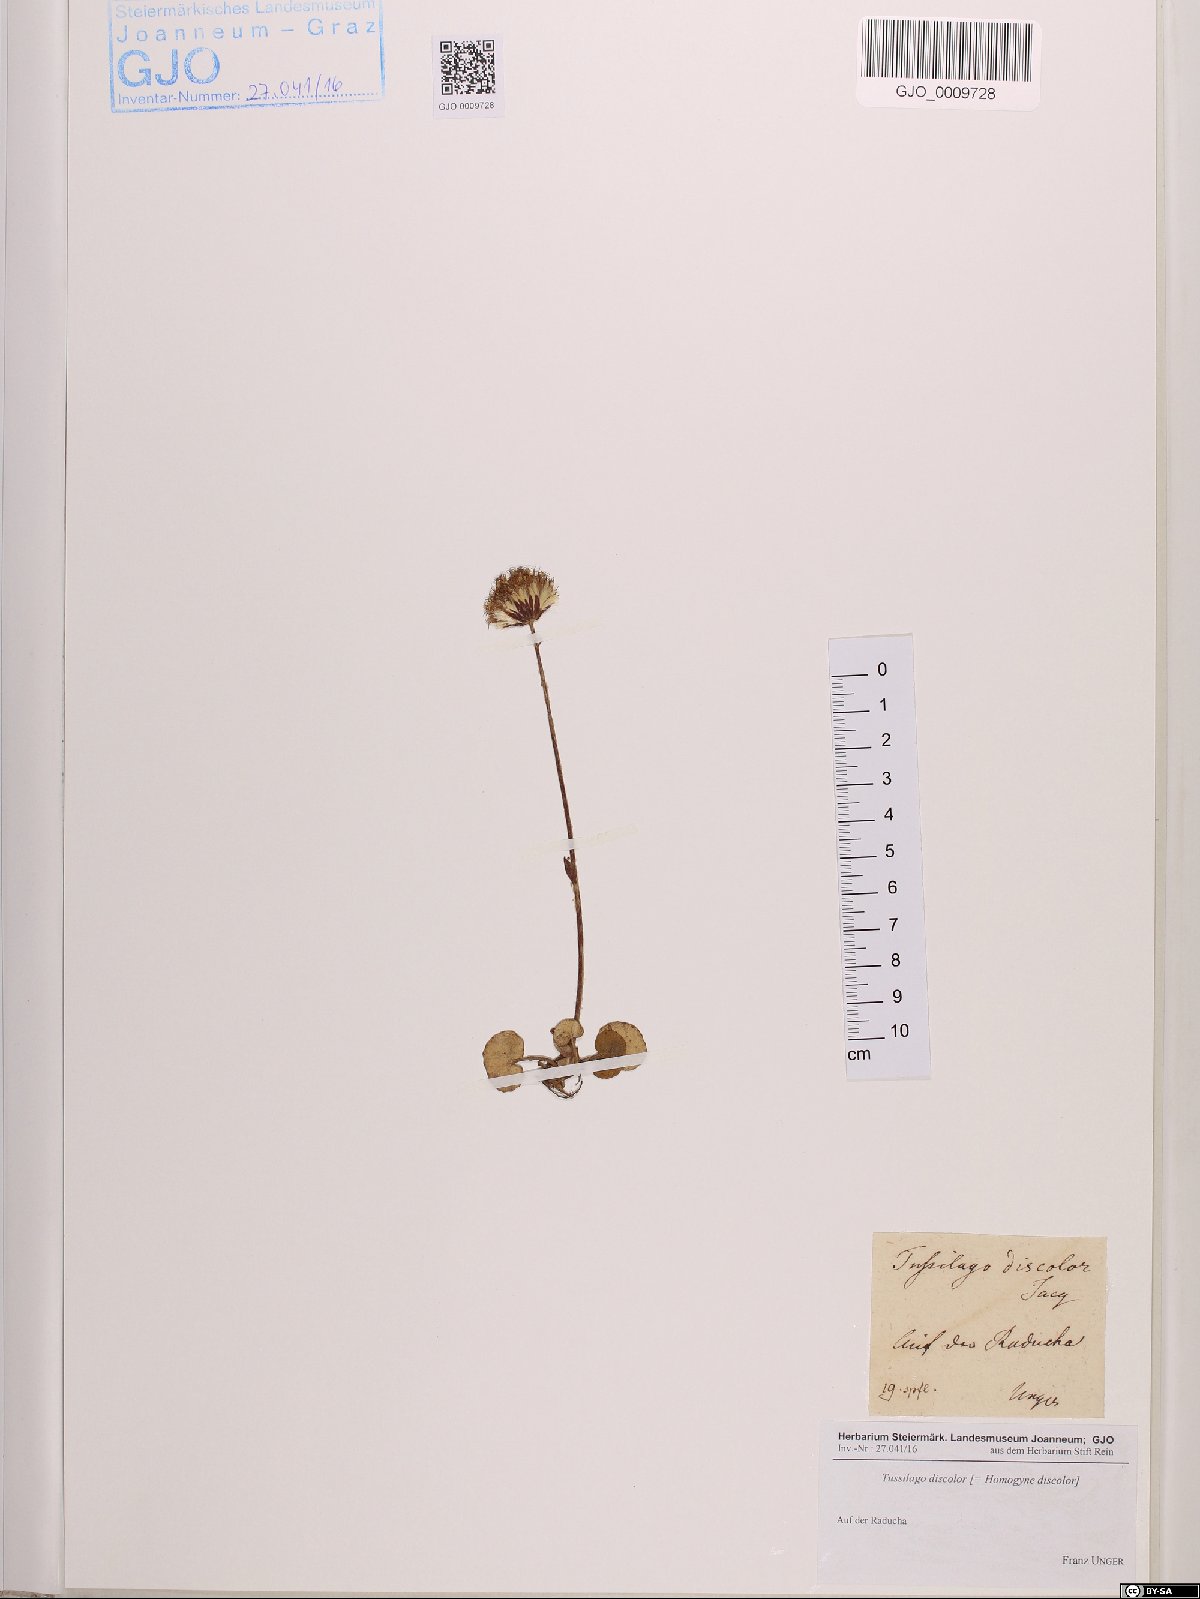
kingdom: Plantae
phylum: Tracheophyta
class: Magnoliopsida
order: Asterales
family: Asteraceae
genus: Homogyne
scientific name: Homogyne discolor
